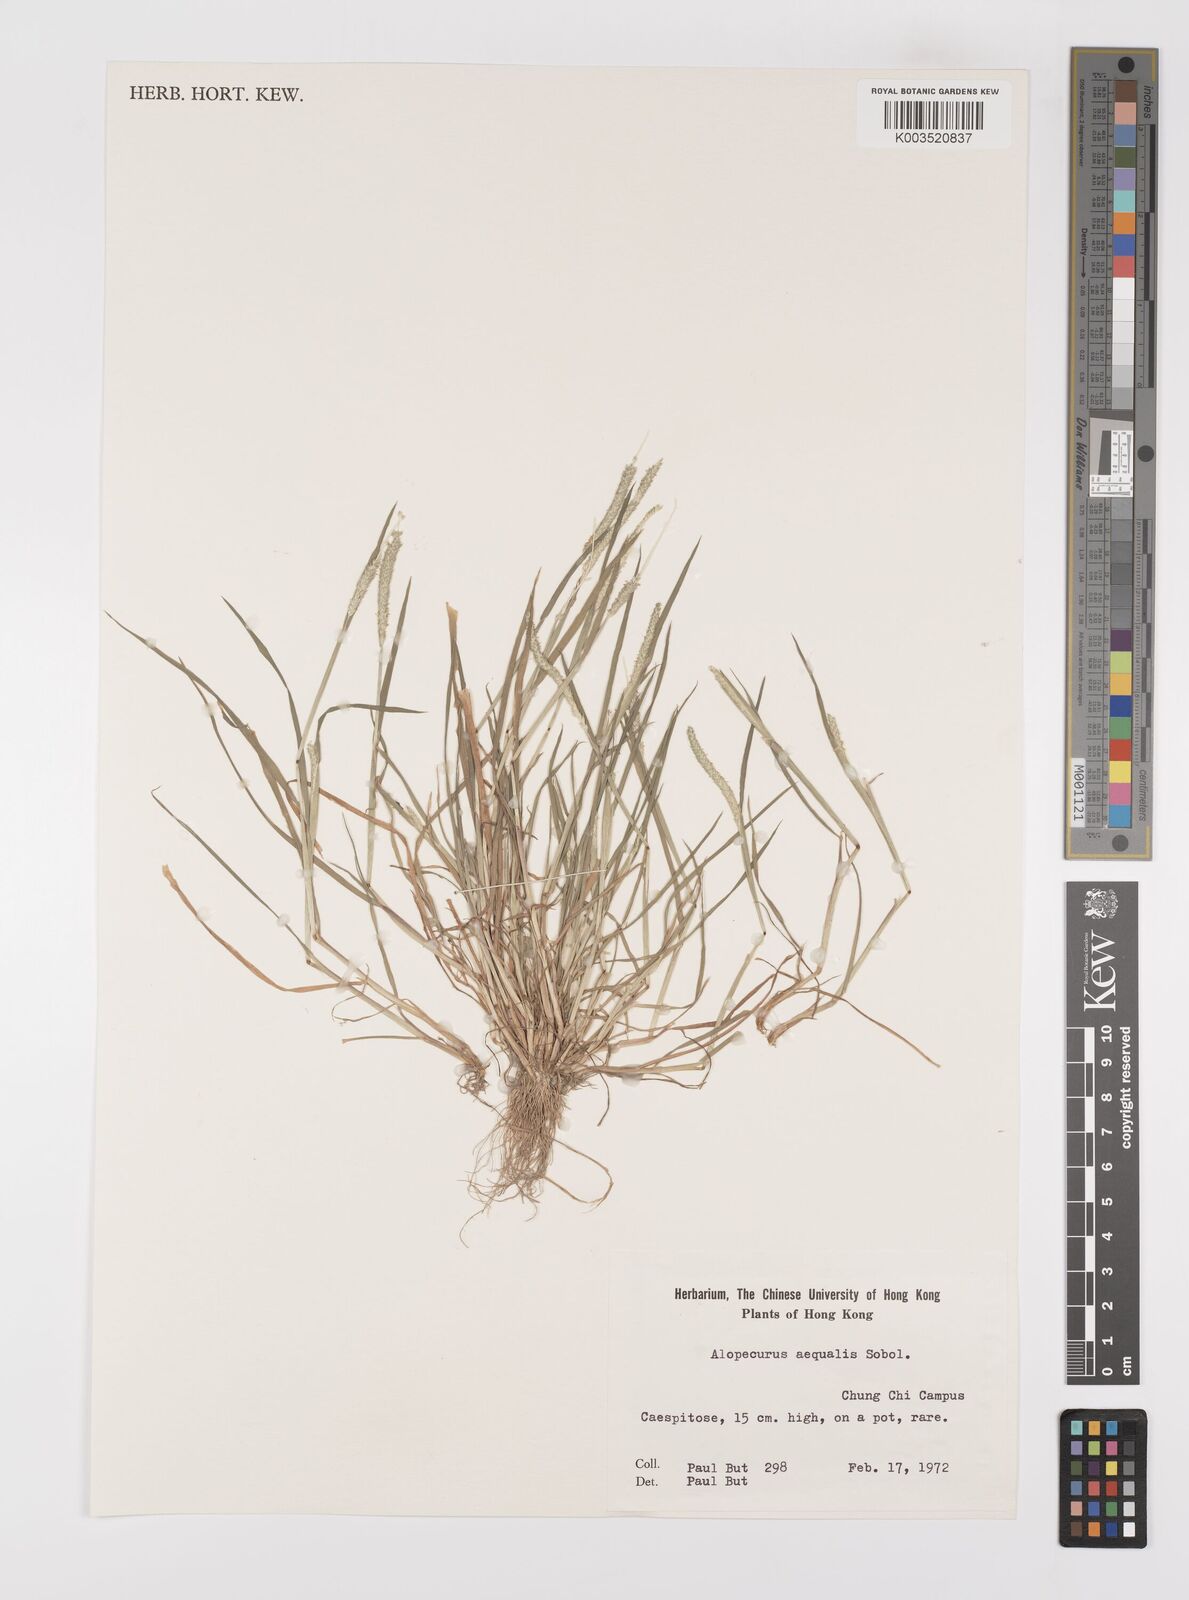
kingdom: Plantae
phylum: Tracheophyta
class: Liliopsida
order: Poales
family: Poaceae
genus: Alopecurus
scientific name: Alopecurus aequalis
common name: Orange foxtail
